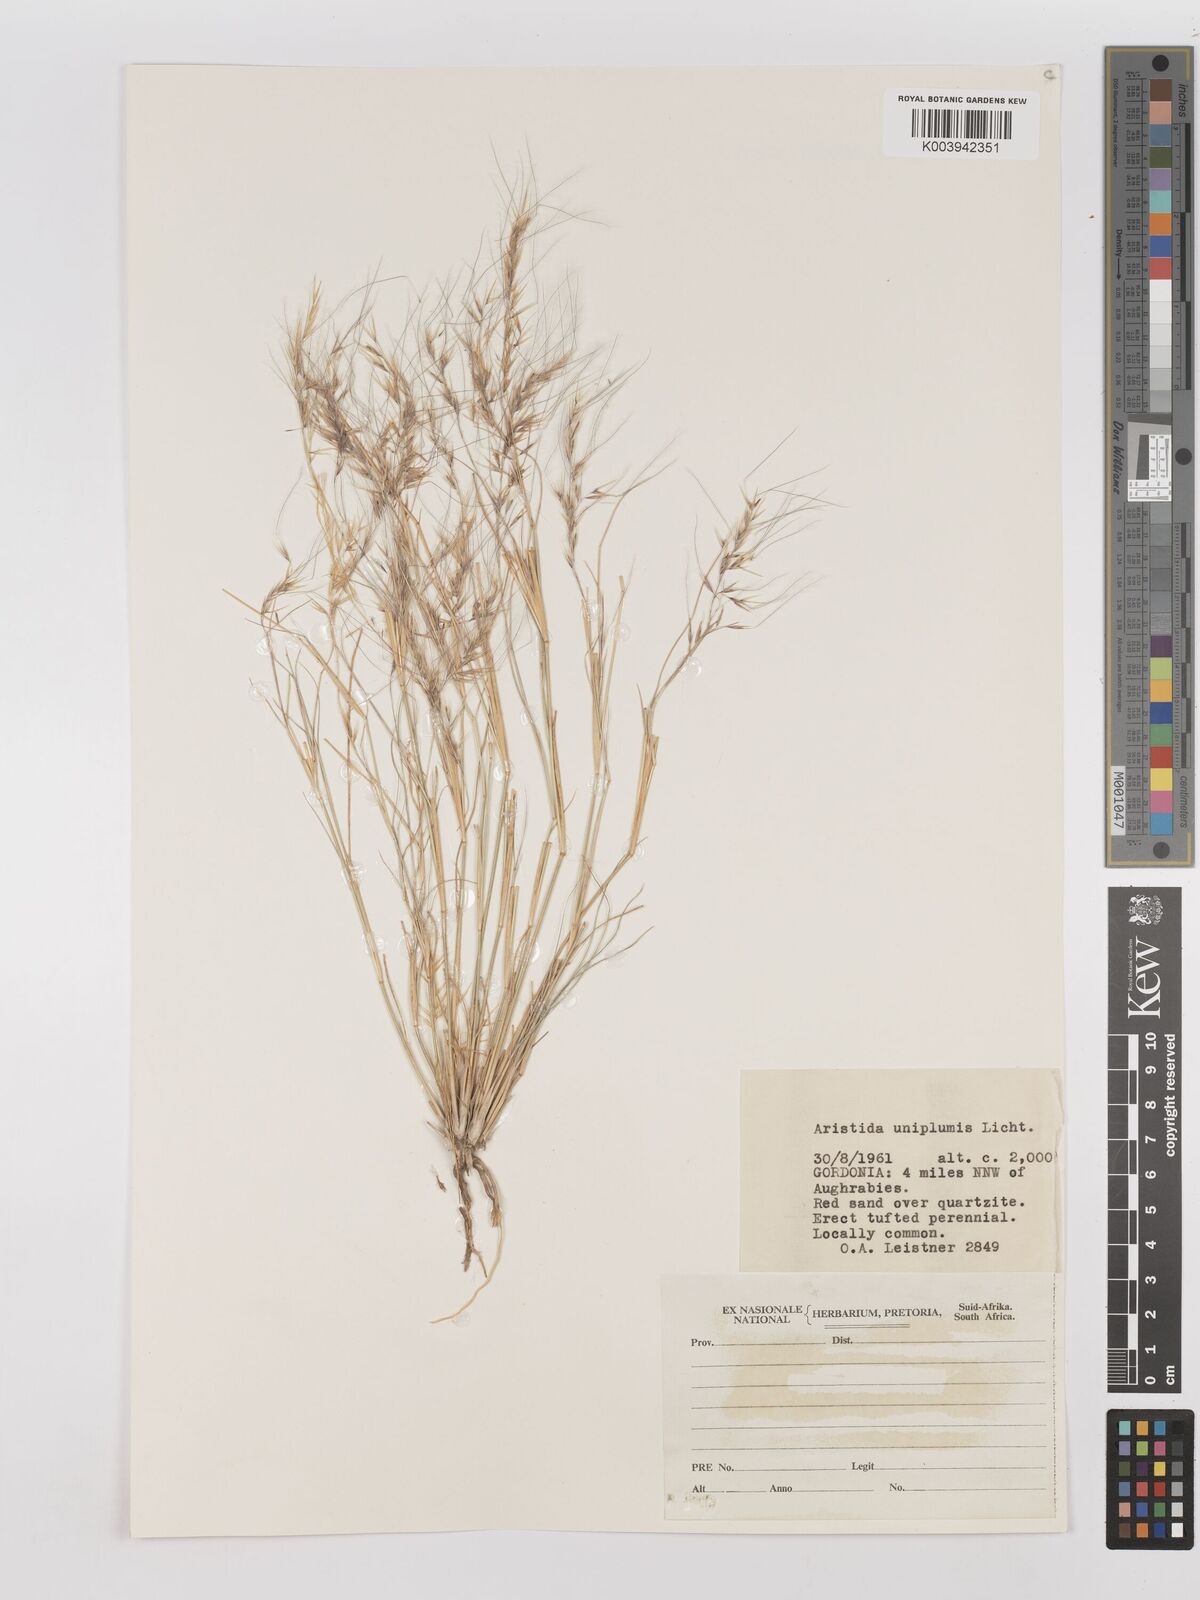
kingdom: Plantae
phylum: Tracheophyta
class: Liliopsida
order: Poales
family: Poaceae
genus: Stipagrostis
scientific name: Stipagrostis uniplumis
